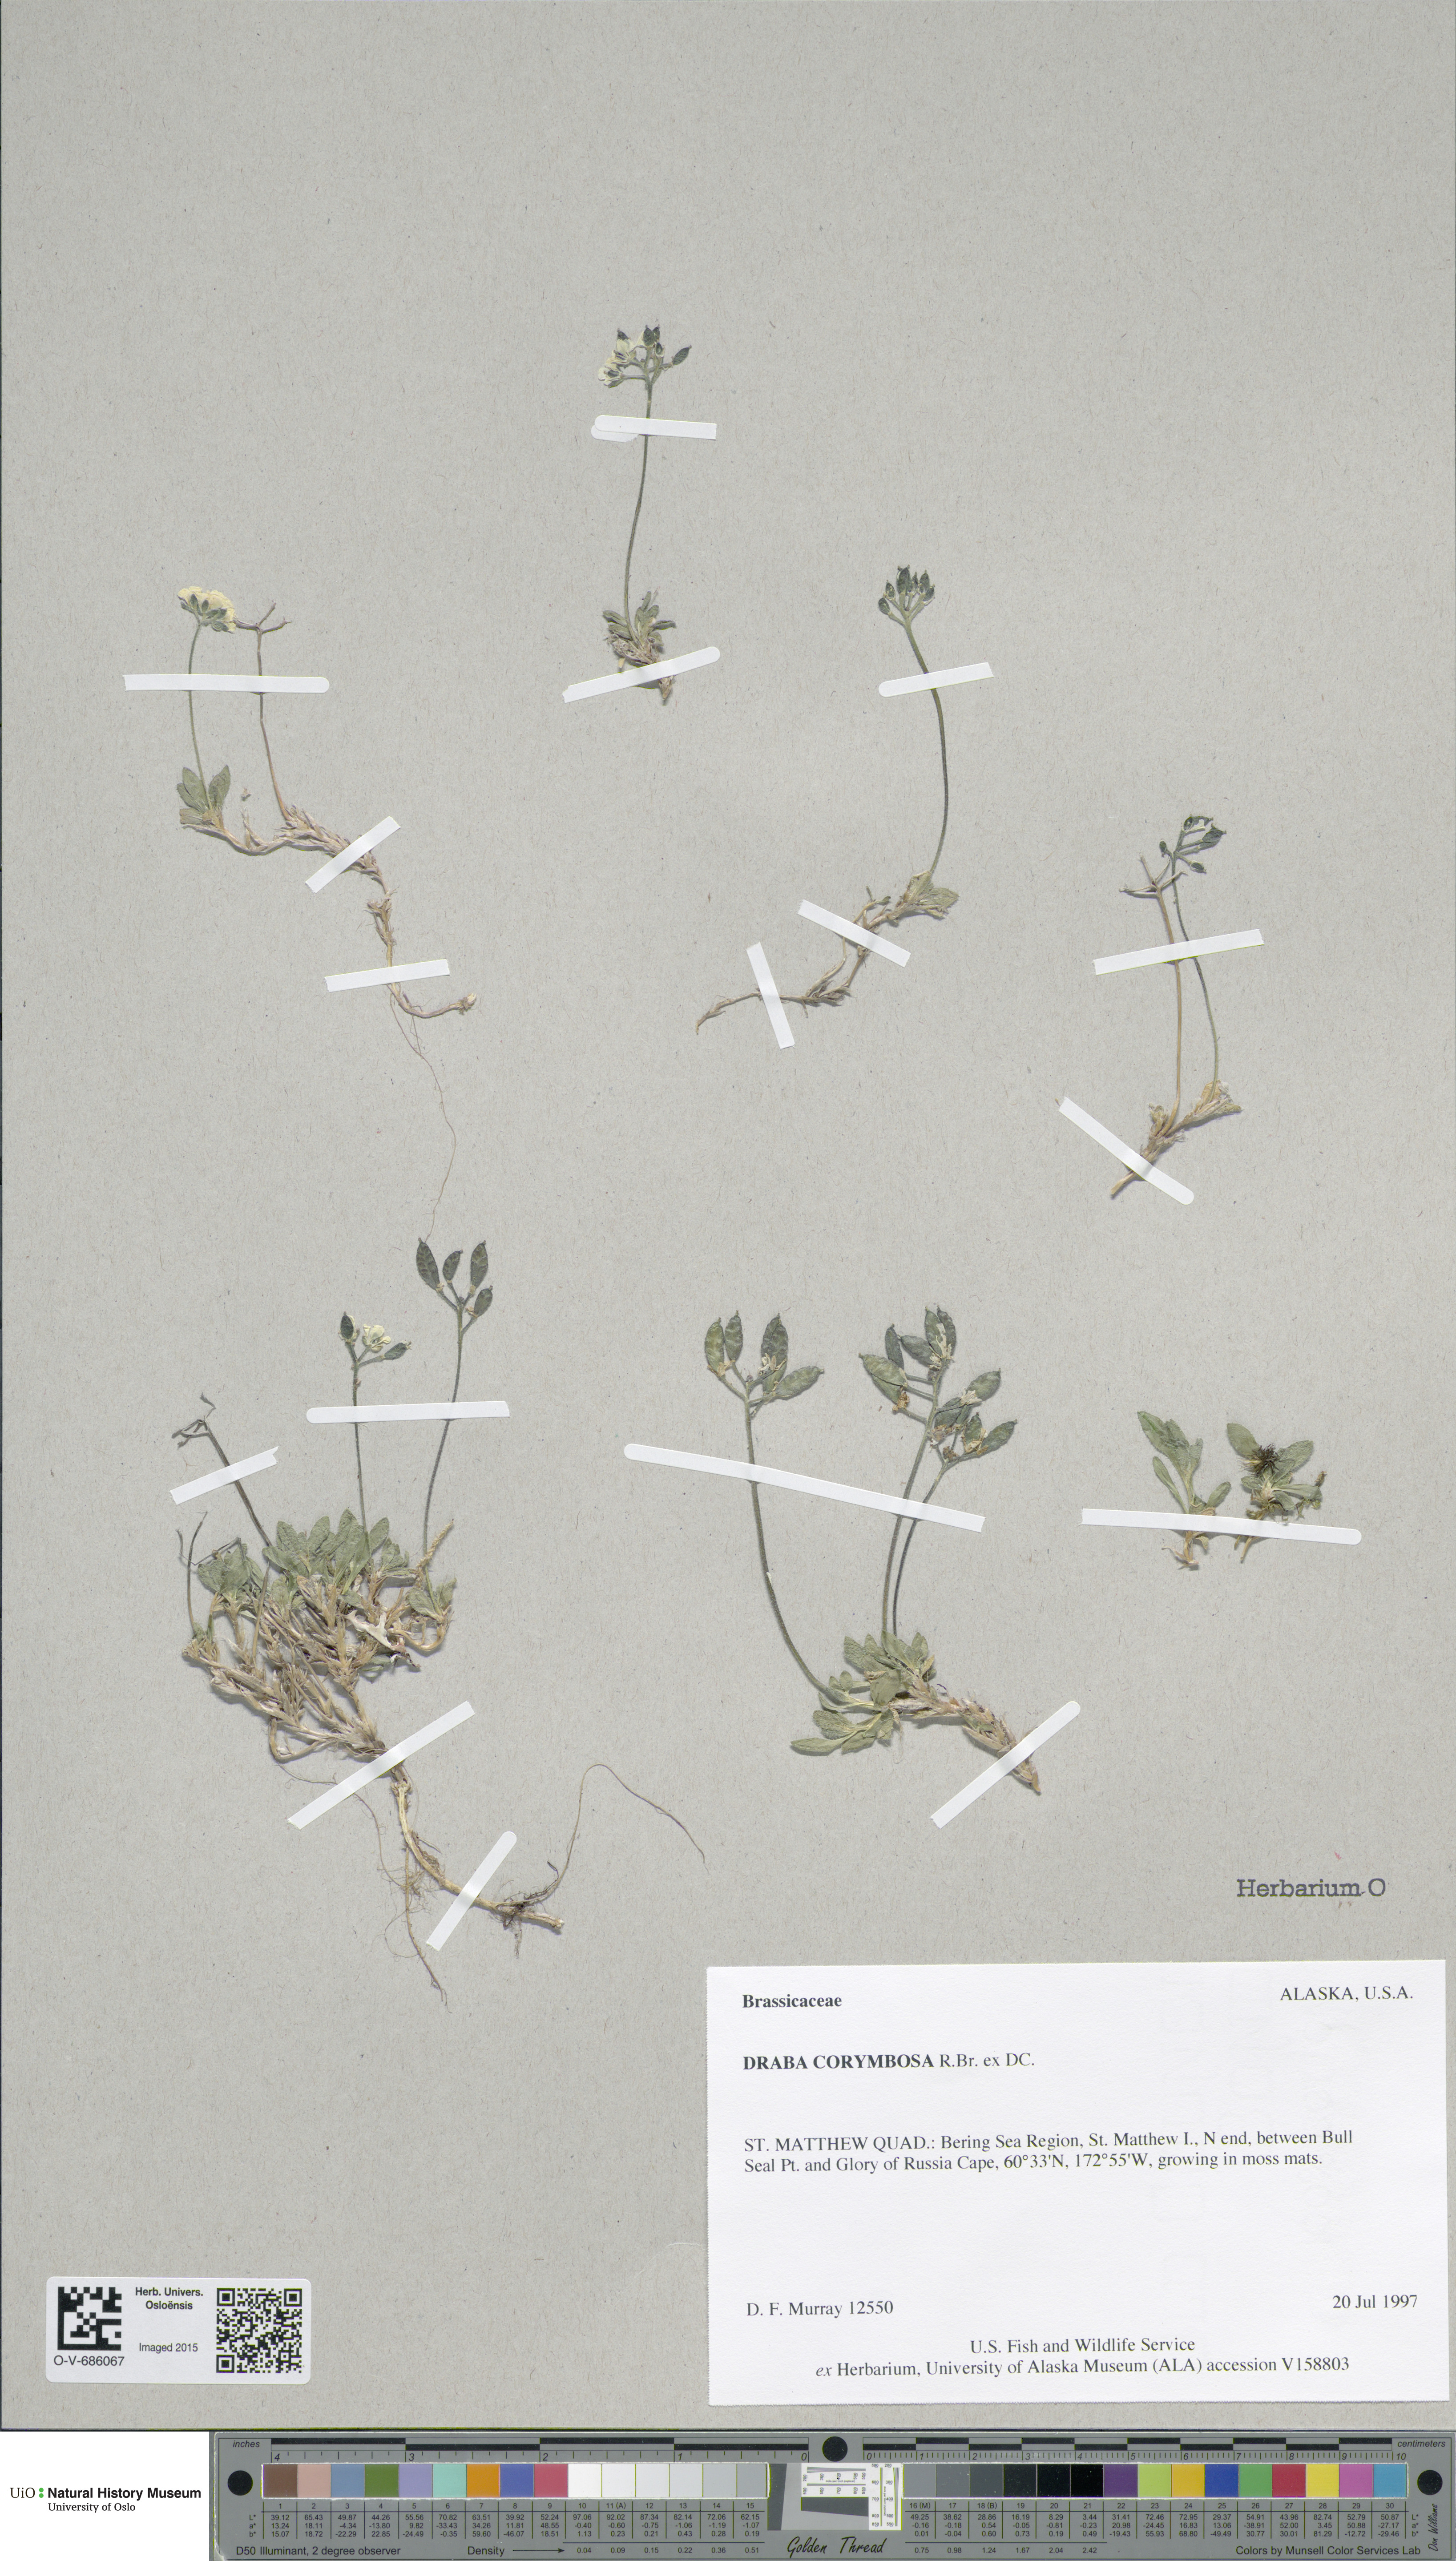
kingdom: Plantae
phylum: Tracheophyta
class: Magnoliopsida
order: Brassicales
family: Brassicaceae
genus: Draba
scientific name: Draba corymbosa
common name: Cushion whitlow-grass
